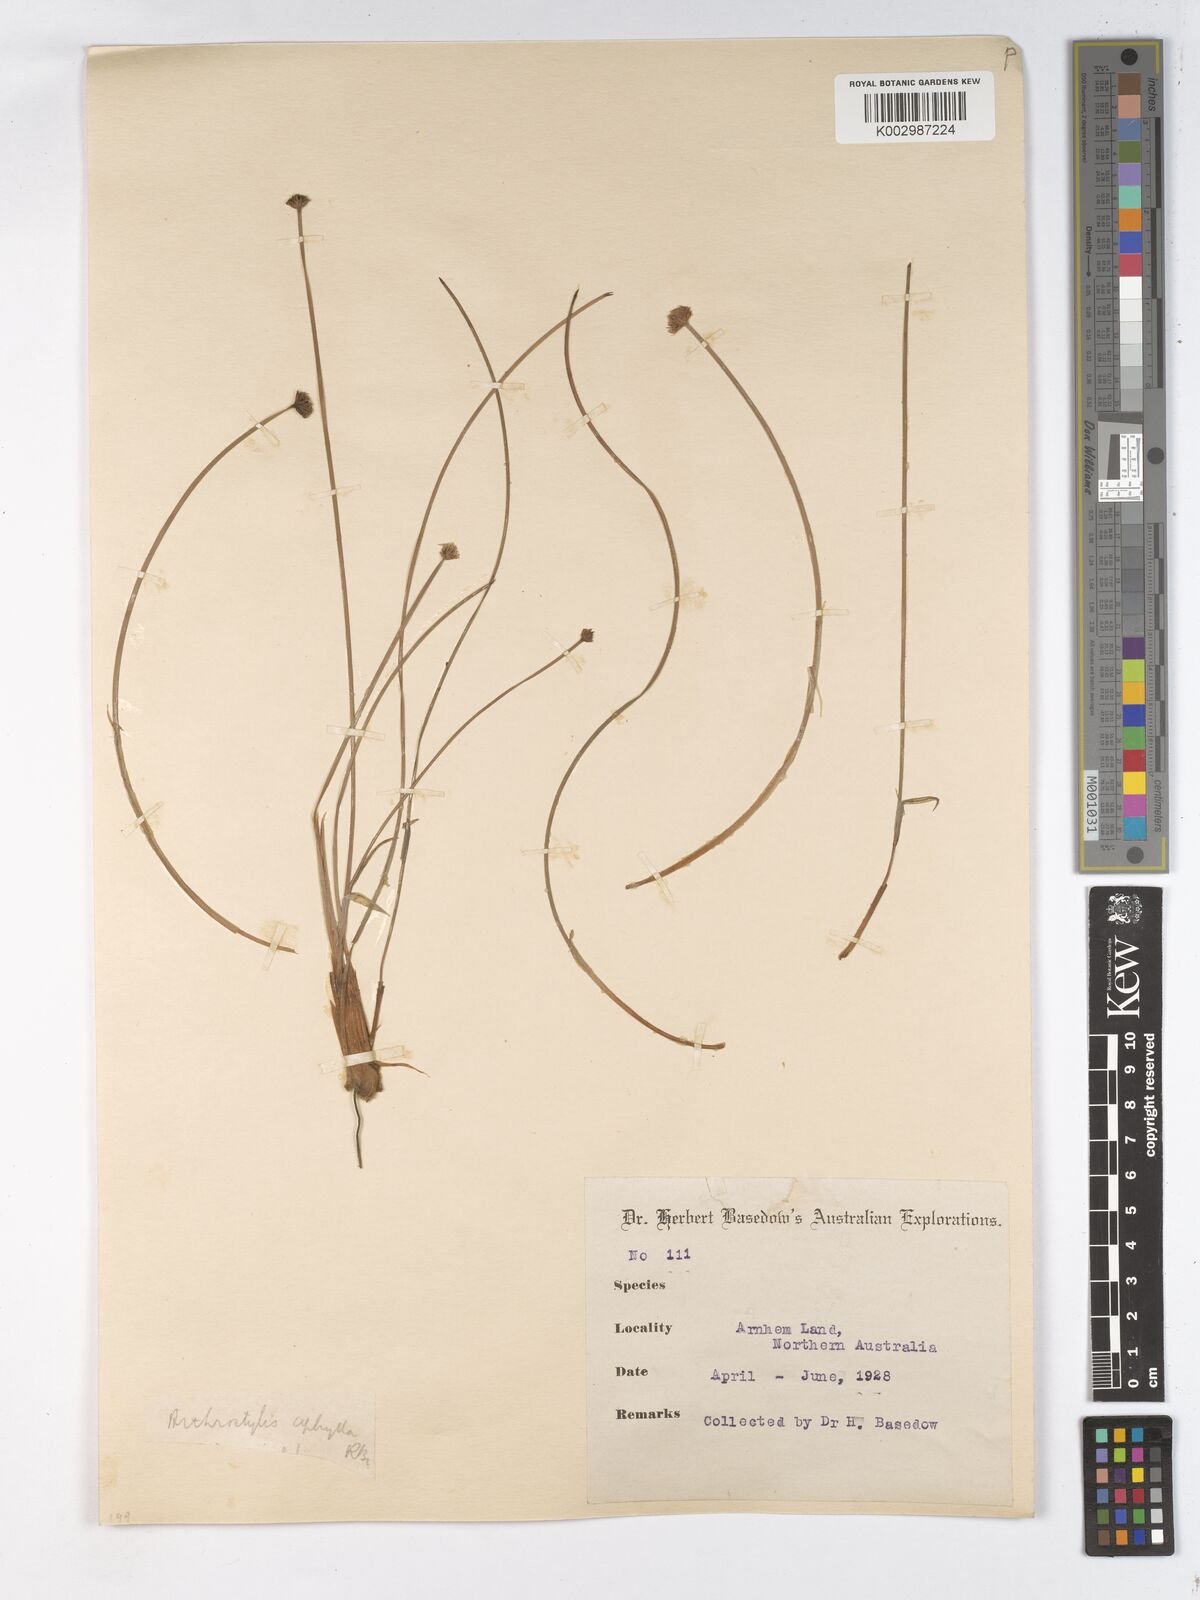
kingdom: Plantae
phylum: Tracheophyta
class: Liliopsida
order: Poales
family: Cyperaceae
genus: Arthrostylis
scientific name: Arthrostylis aphylla
